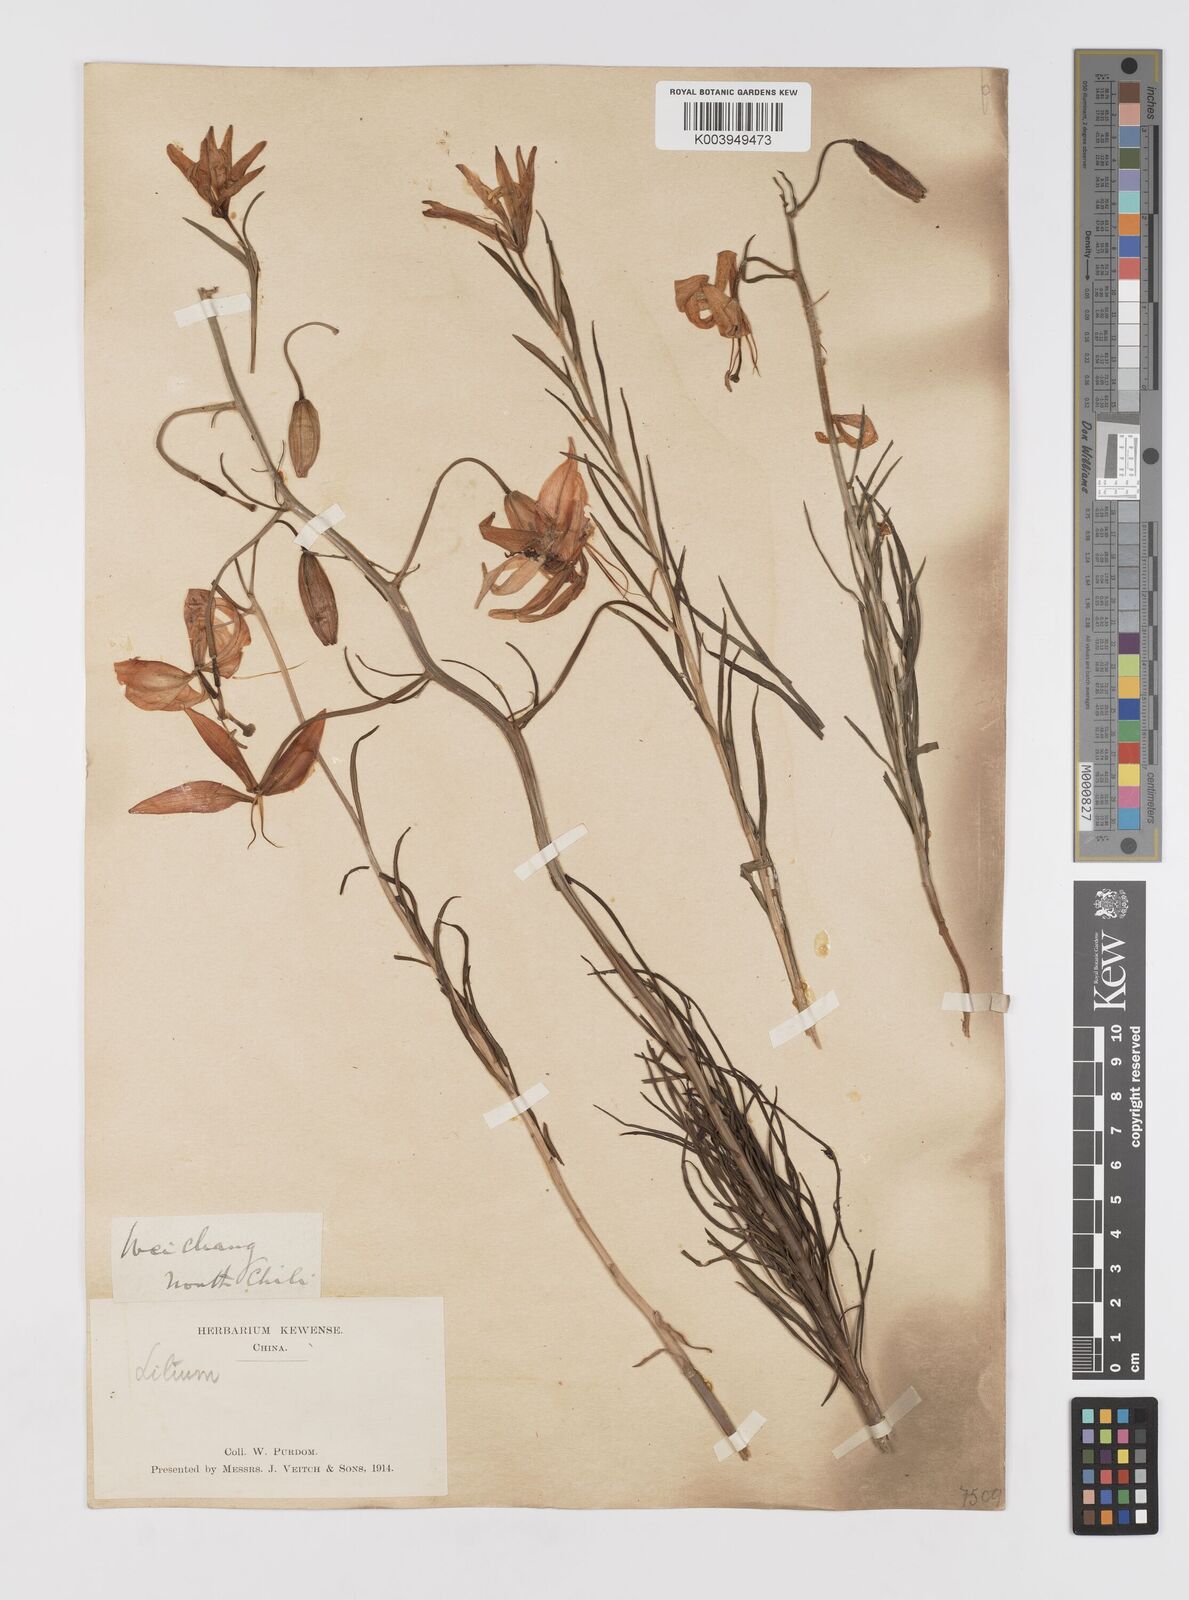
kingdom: Plantae
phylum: Tracheophyta
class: Liliopsida
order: Liliales
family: Liliaceae
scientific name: Liliaceae
